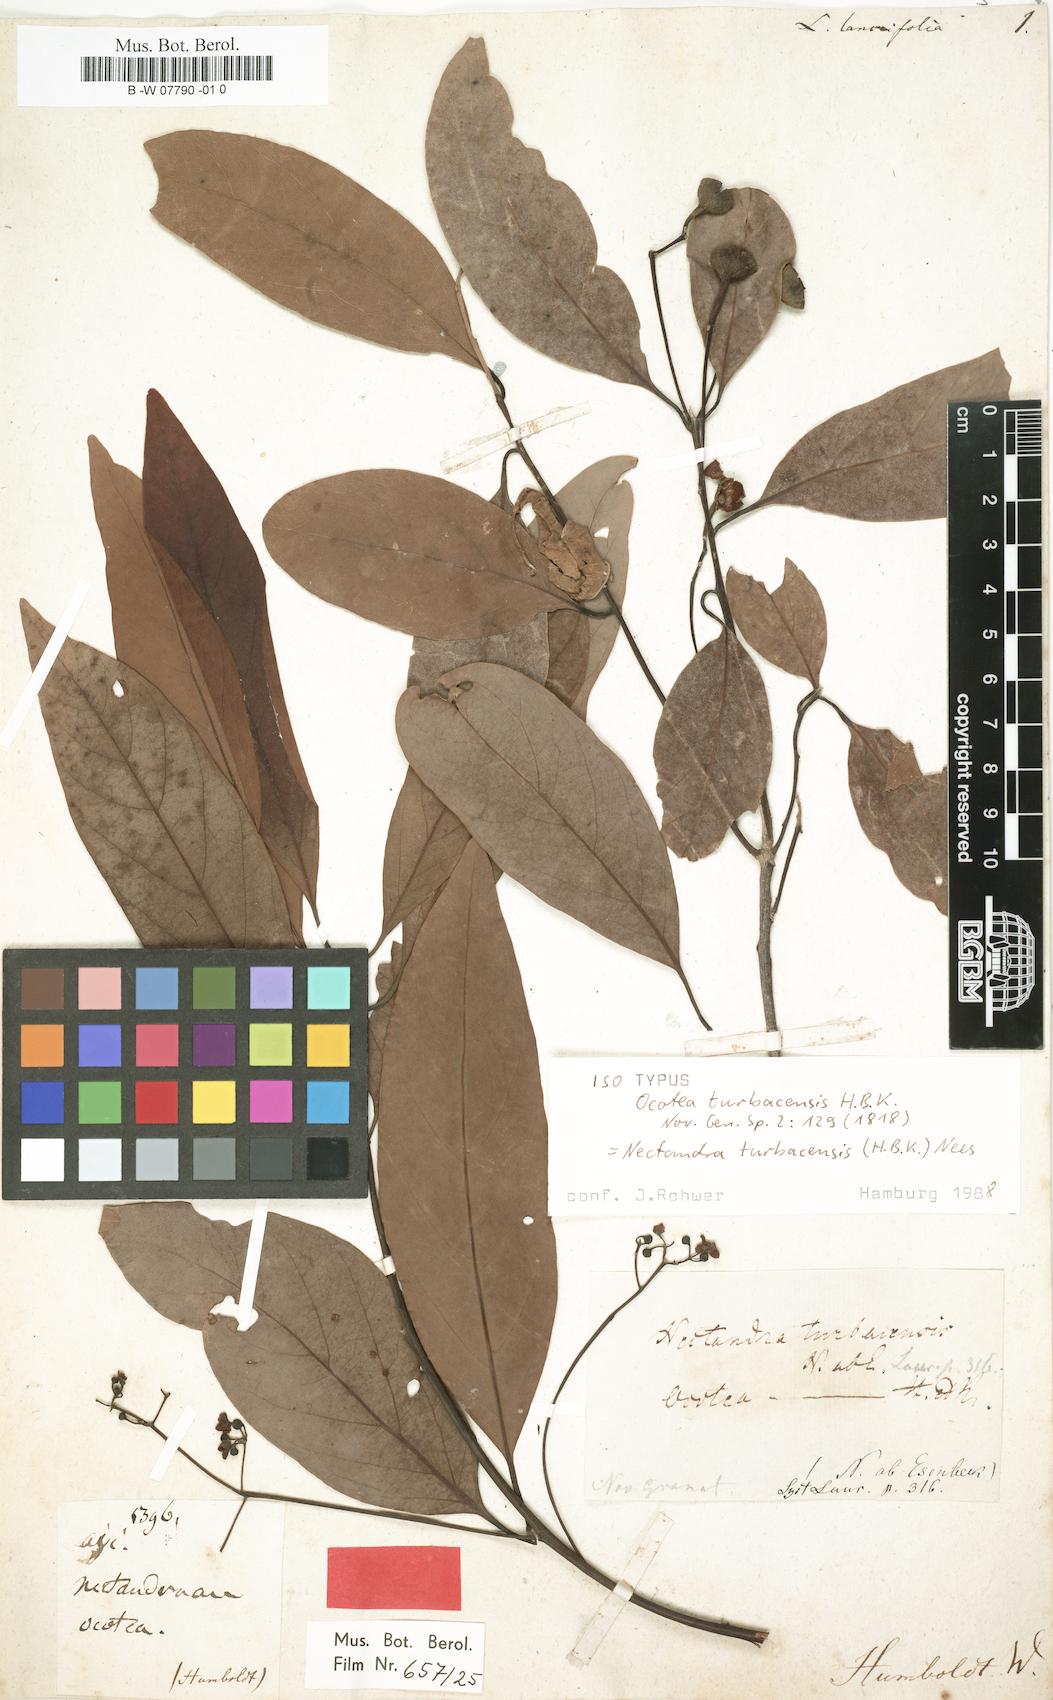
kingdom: Plantae
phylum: Tracheophyta
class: Magnoliopsida
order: Laurales
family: Lauraceae
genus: Nectandra
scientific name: Nectandra turbacensis
